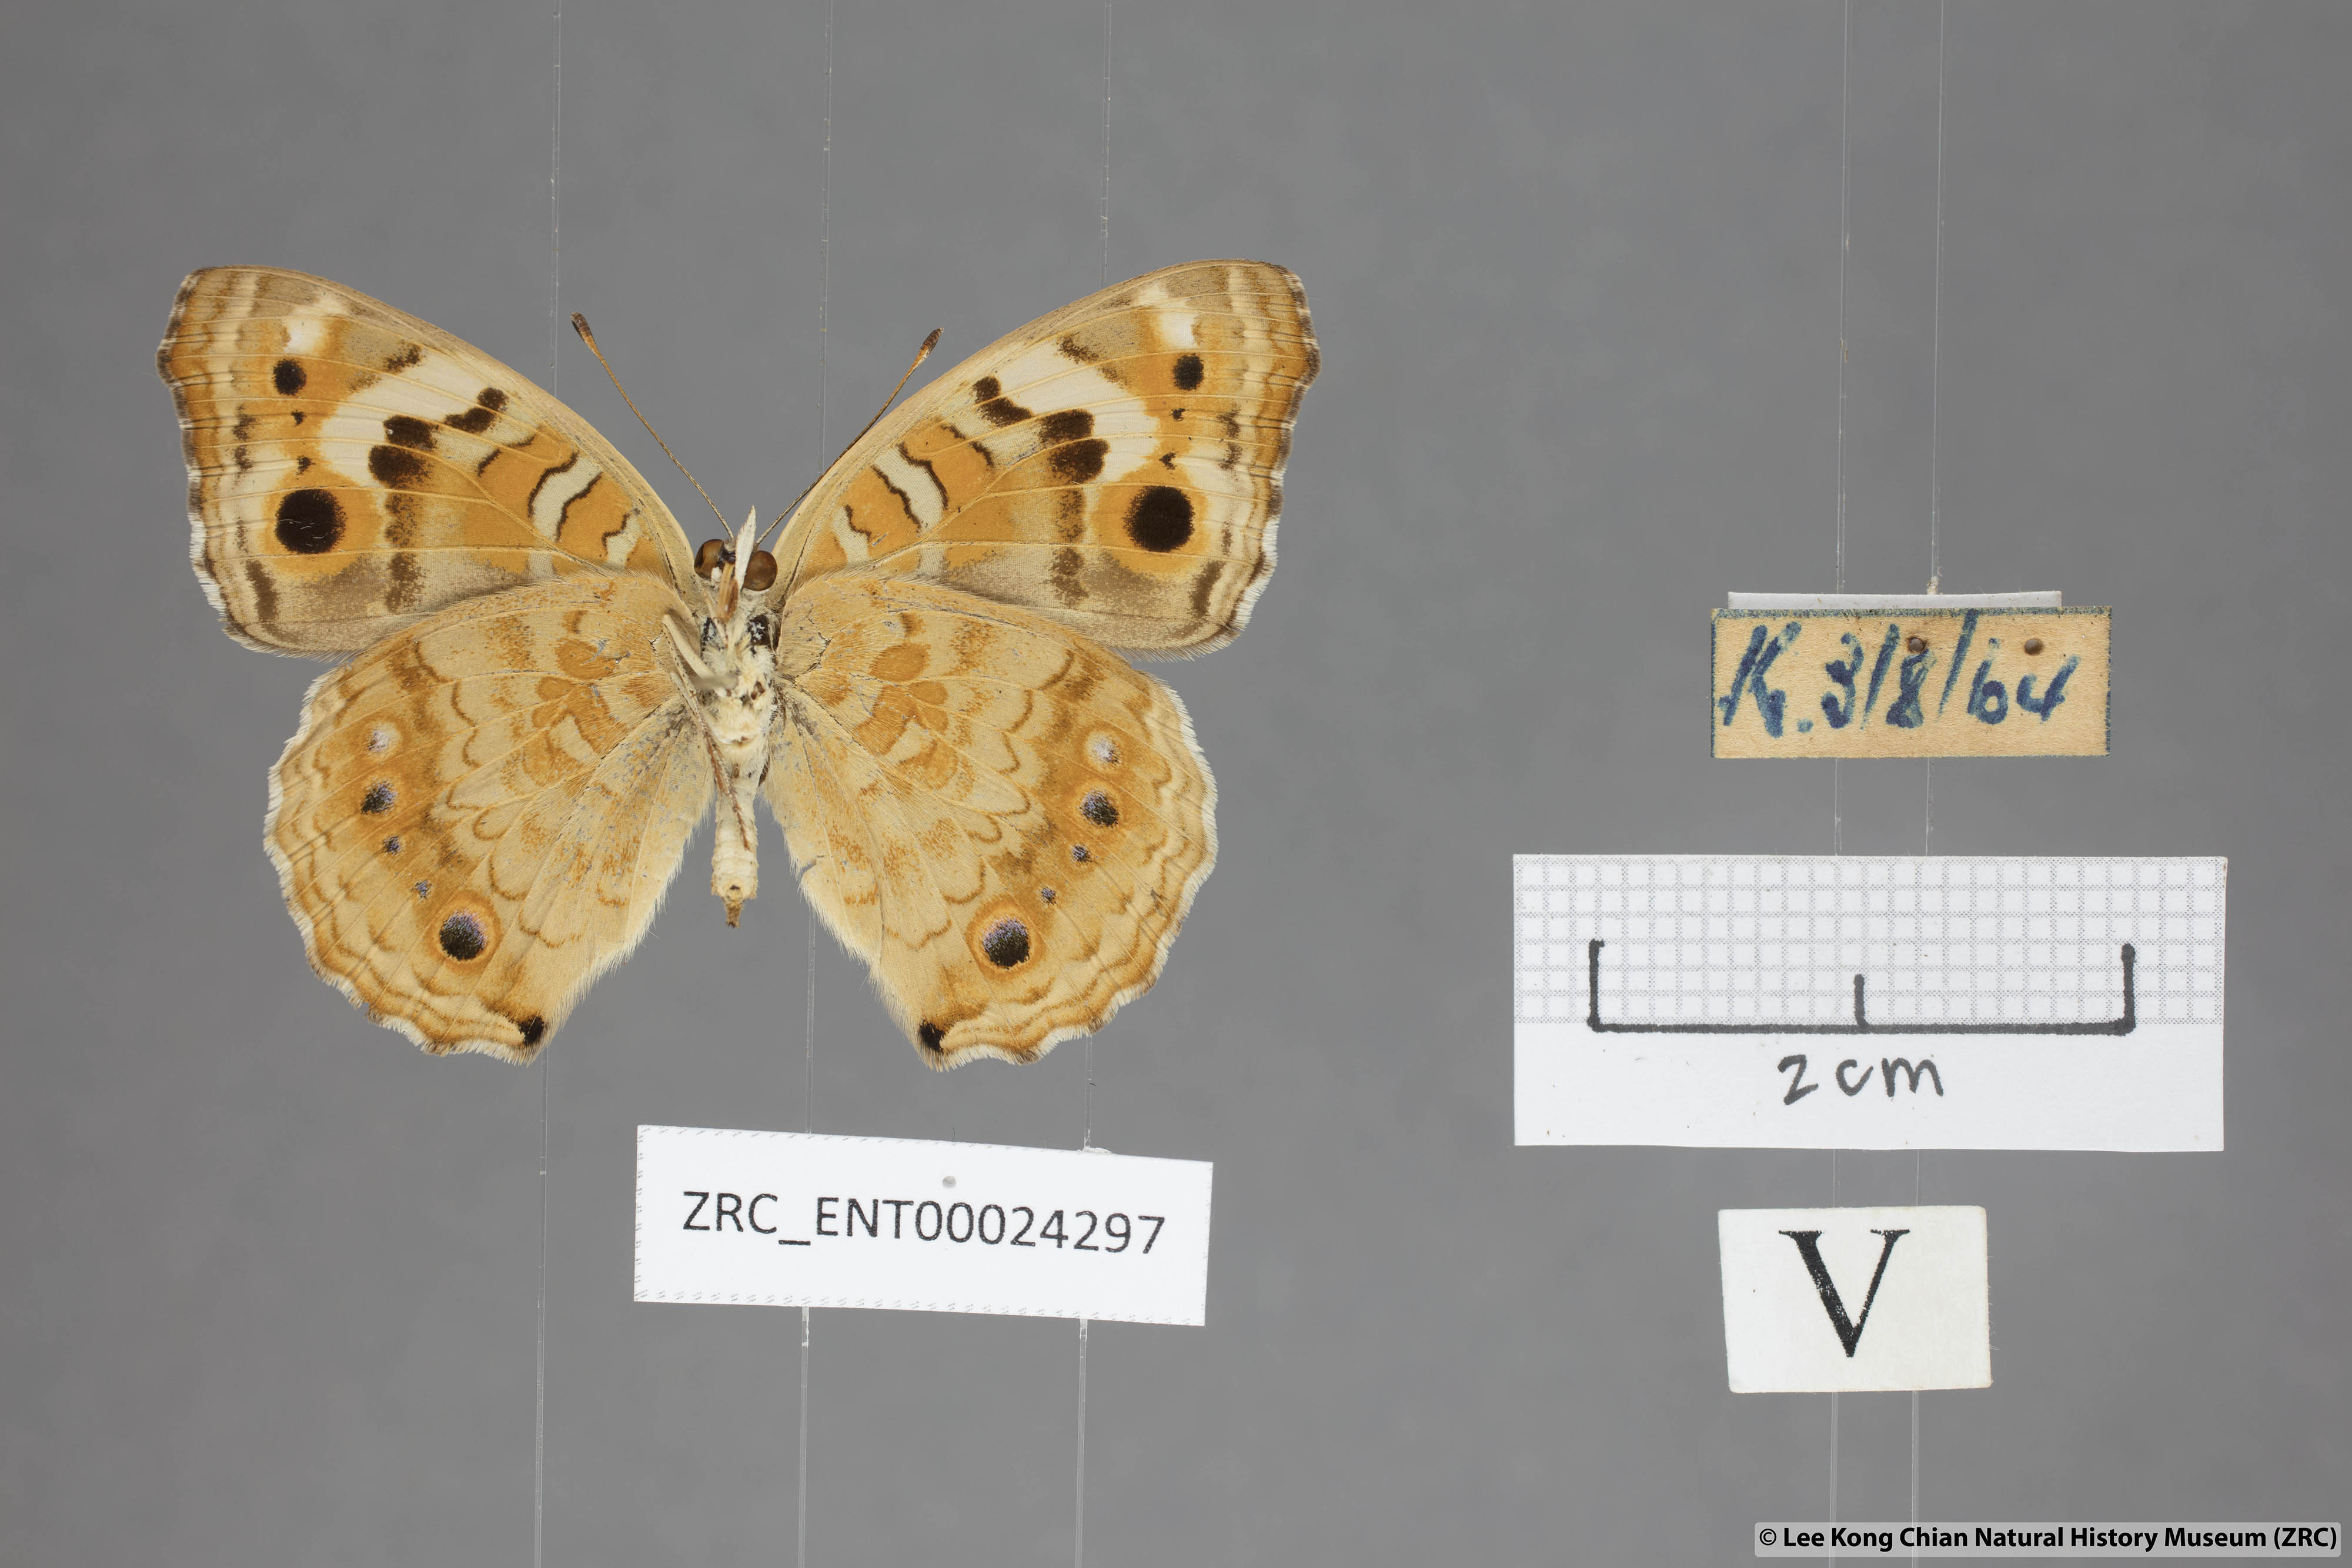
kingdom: Animalia
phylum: Arthropoda
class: Insecta
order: Lepidoptera
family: Nymphalidae
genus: Junonia
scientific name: Junonia orithya
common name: Blue pansy
